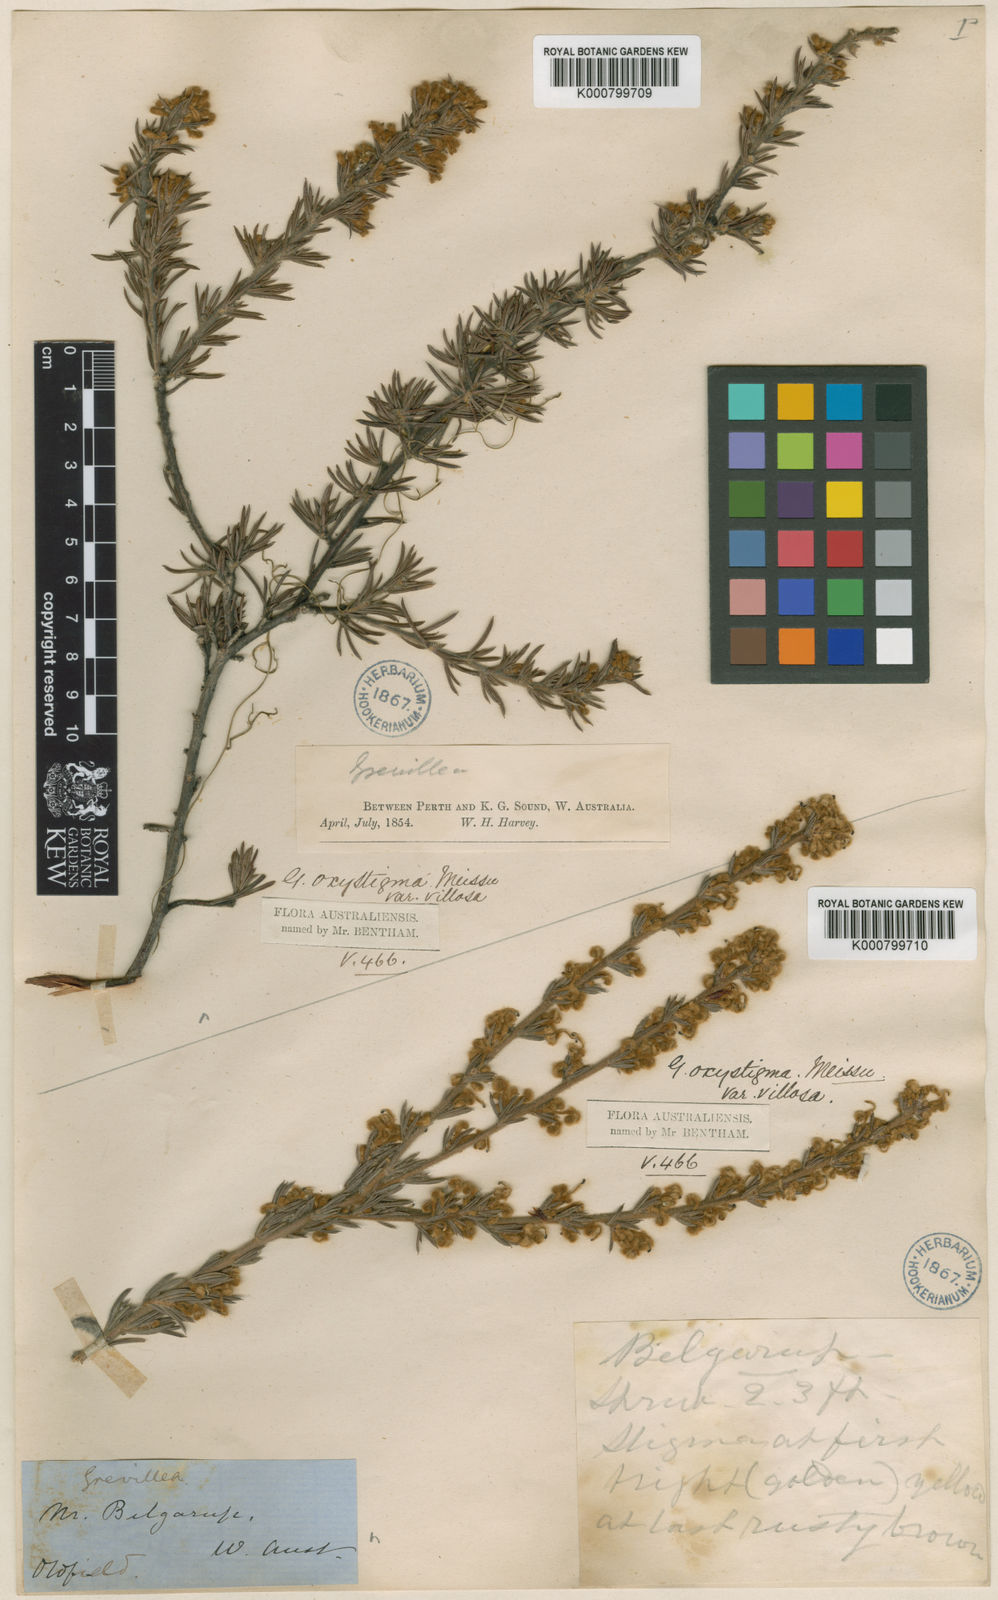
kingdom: Plantae
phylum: Tracheophyta
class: Magnoliopsida
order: Proteales
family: Proteaceae
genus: Grevillea
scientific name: Grevillea uncinulata
